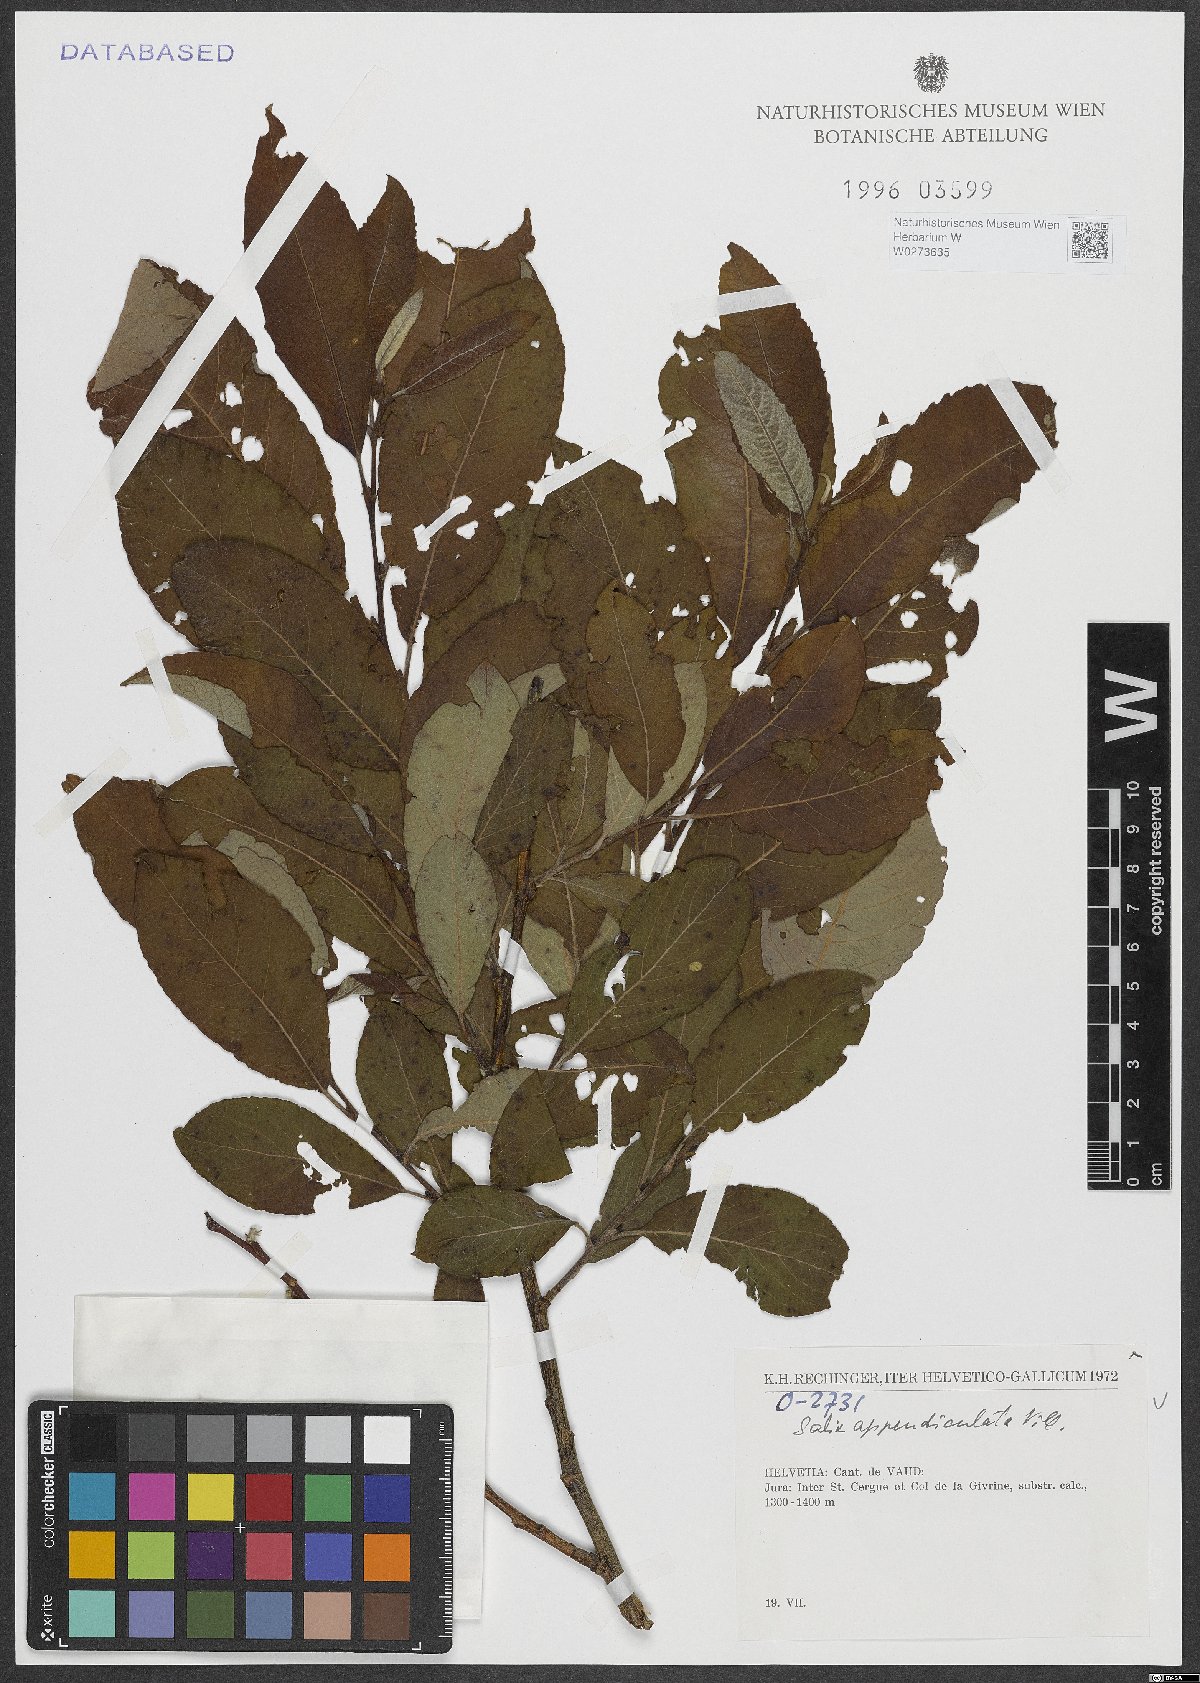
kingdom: Plantae
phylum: Tracheophyta
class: Magnoliopsida
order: Malpighiales
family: Salicaceae
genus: Salix
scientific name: Salix appendiculata
